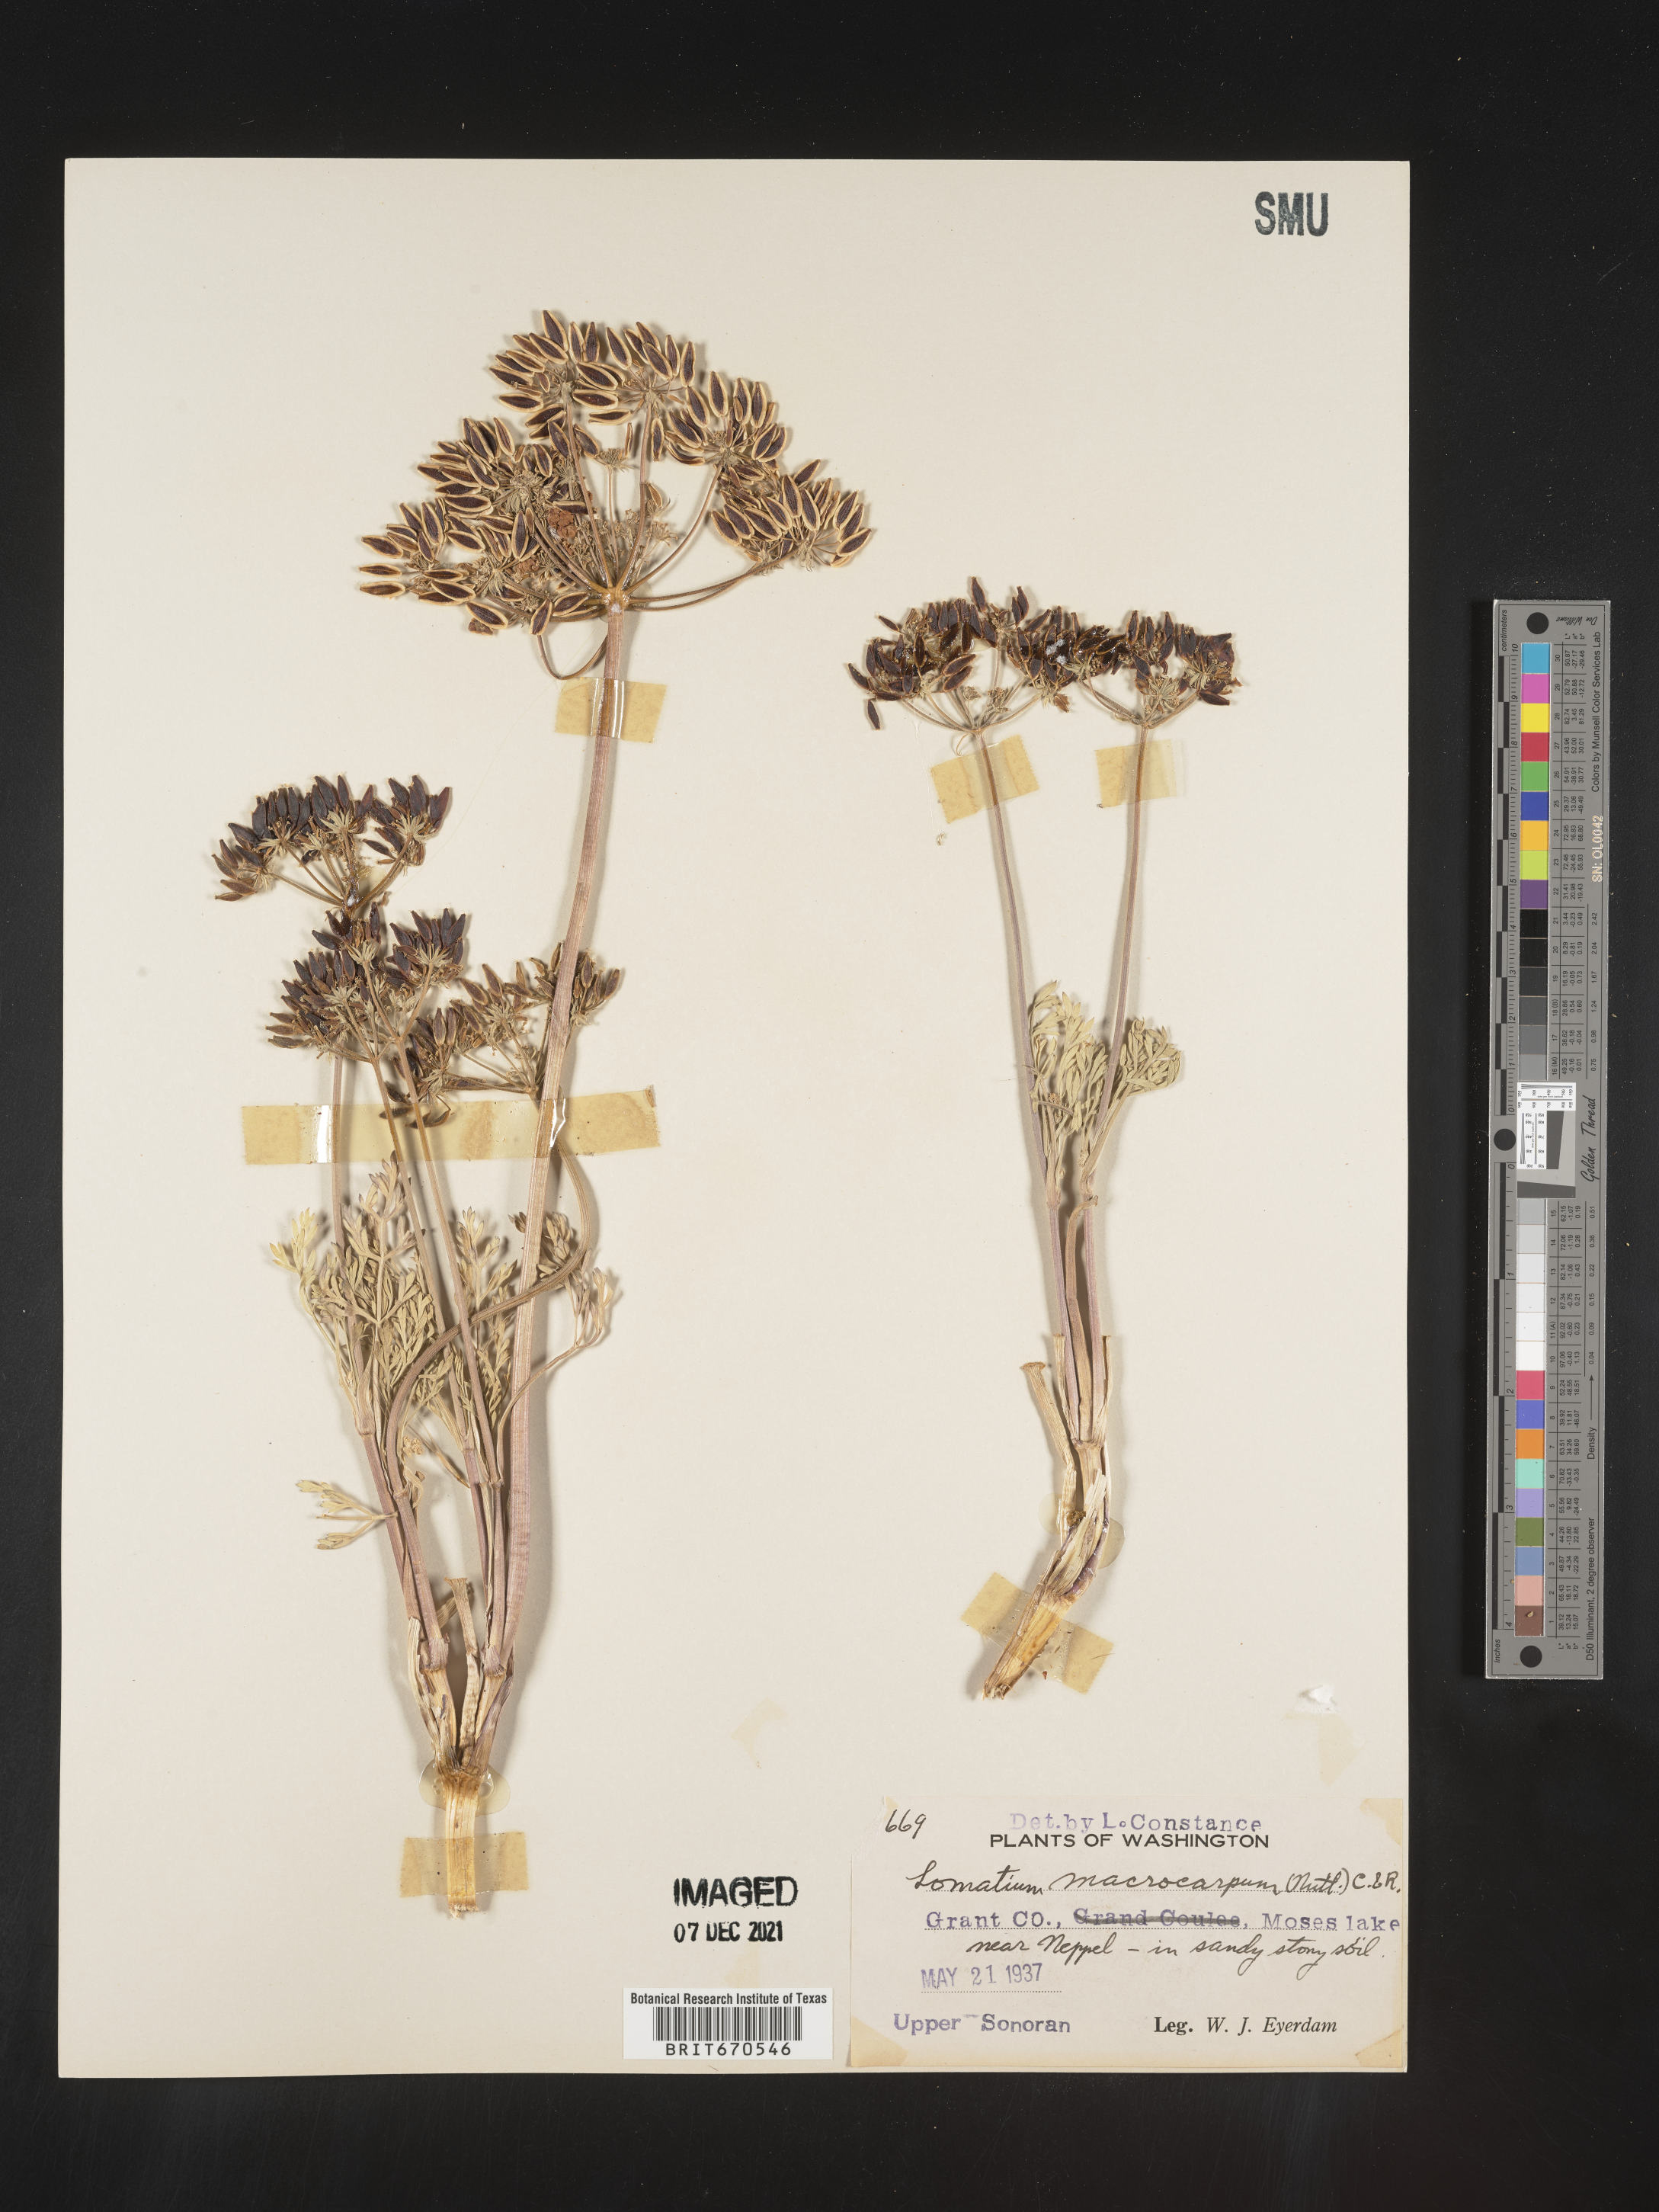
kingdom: Plantae
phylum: Tracheophyta
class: Magnoliopsida
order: Apiales
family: Apiaceae
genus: Lomatium
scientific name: Lomatium macrocarpum
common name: Big-seed biscuitroot
